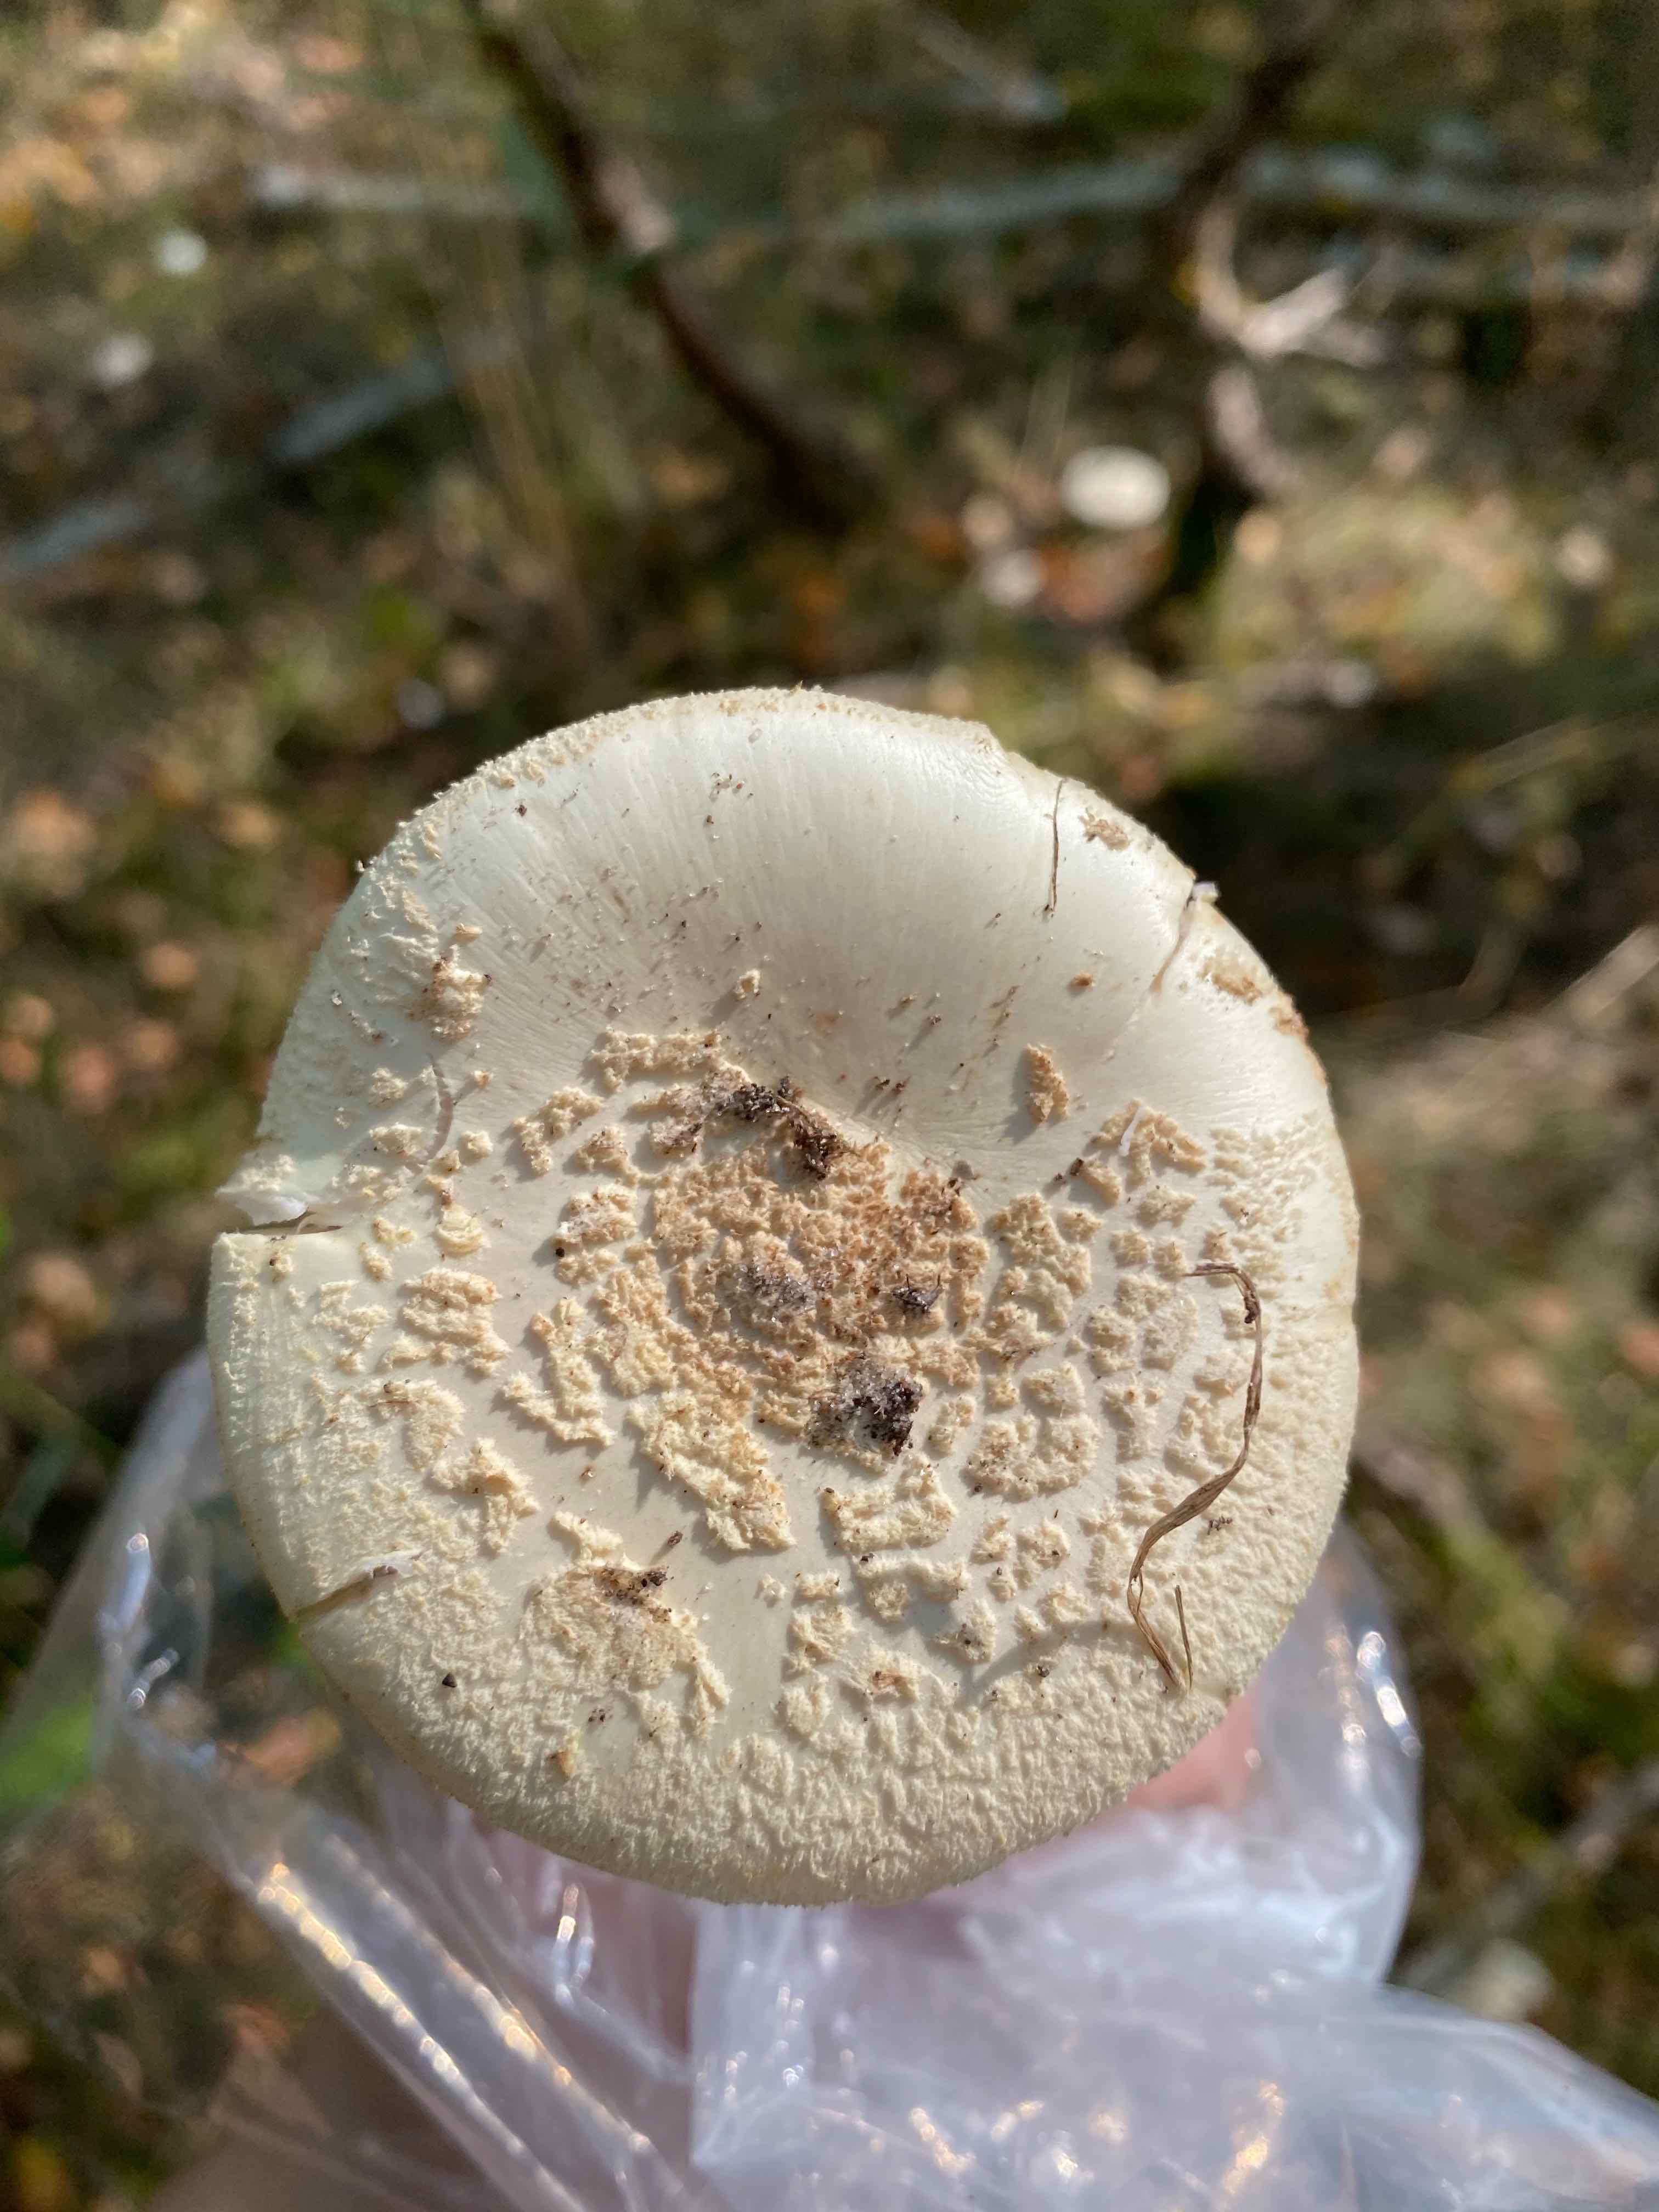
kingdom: Fungi
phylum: Basidiomycota
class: Agaricomycetes
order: Agaricales
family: Amanitaceae
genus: Amanita
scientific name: Amanita citrina
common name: False death-cap
